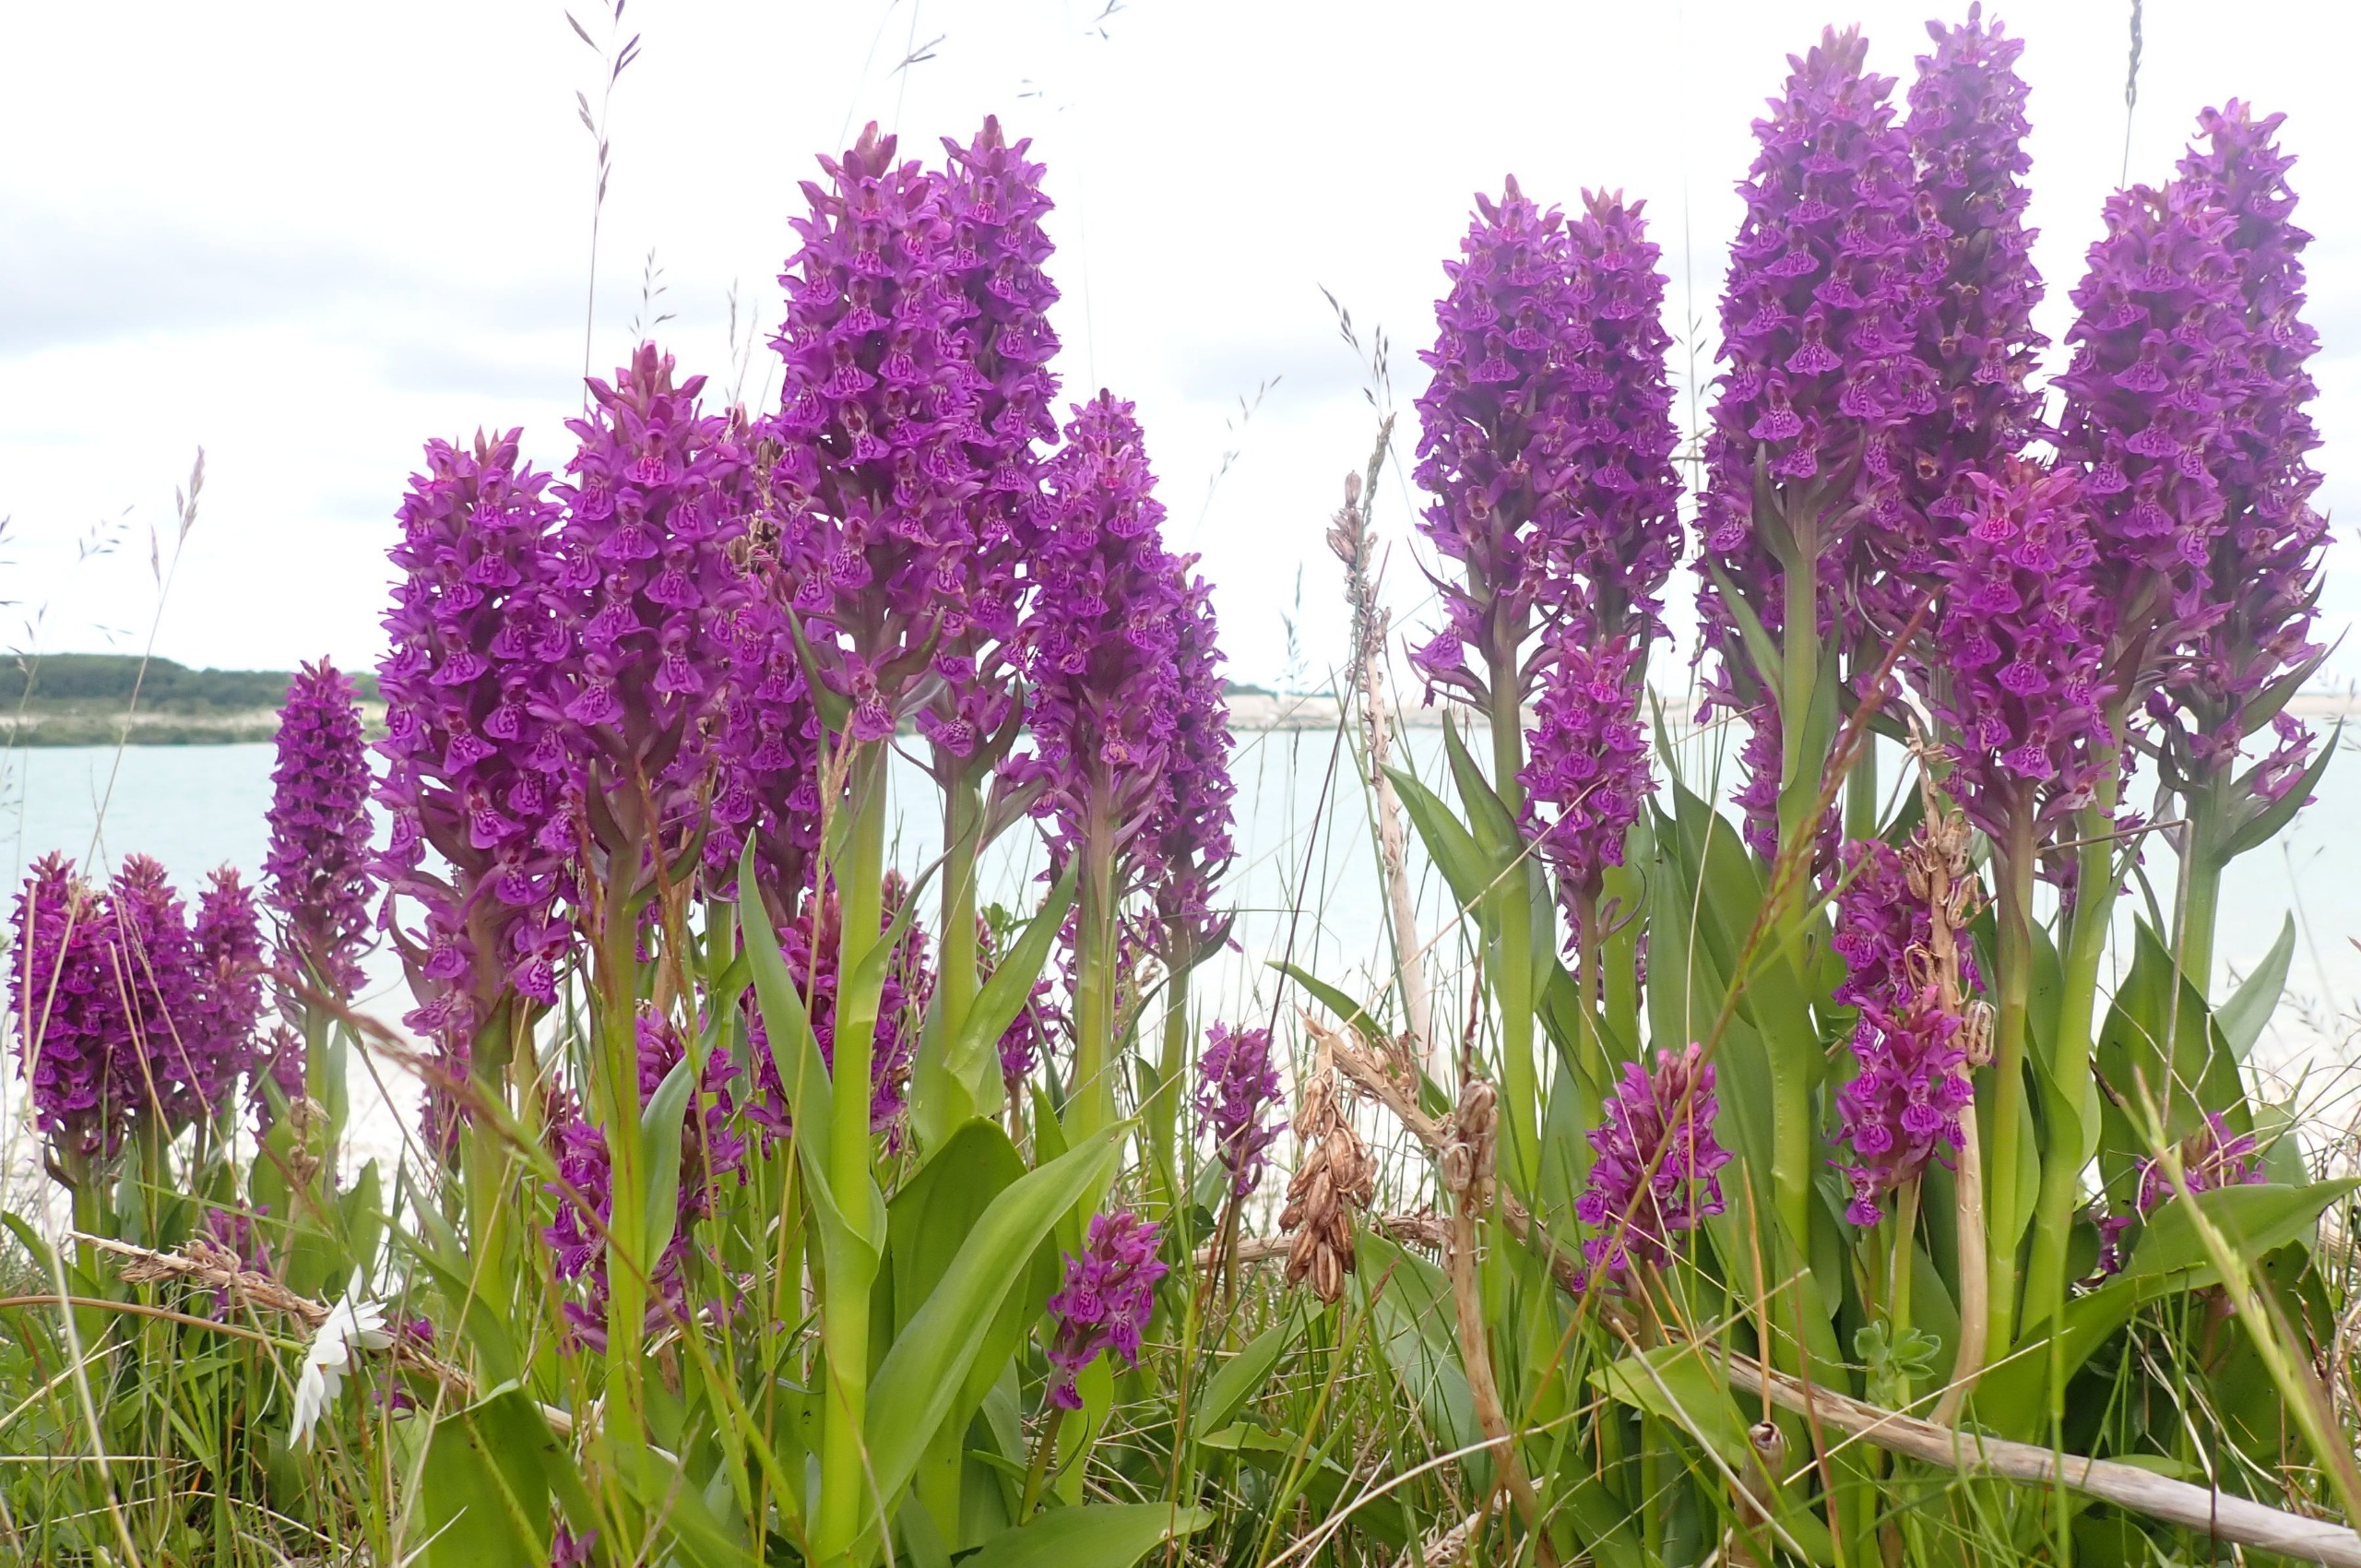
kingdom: Plantae
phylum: Tracheophyta
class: Liliopsida
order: Asparagales
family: Orchidaceae
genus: Dactylorhiza
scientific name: Dactylorhiza majalis
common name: Purpur-gøgeurt
